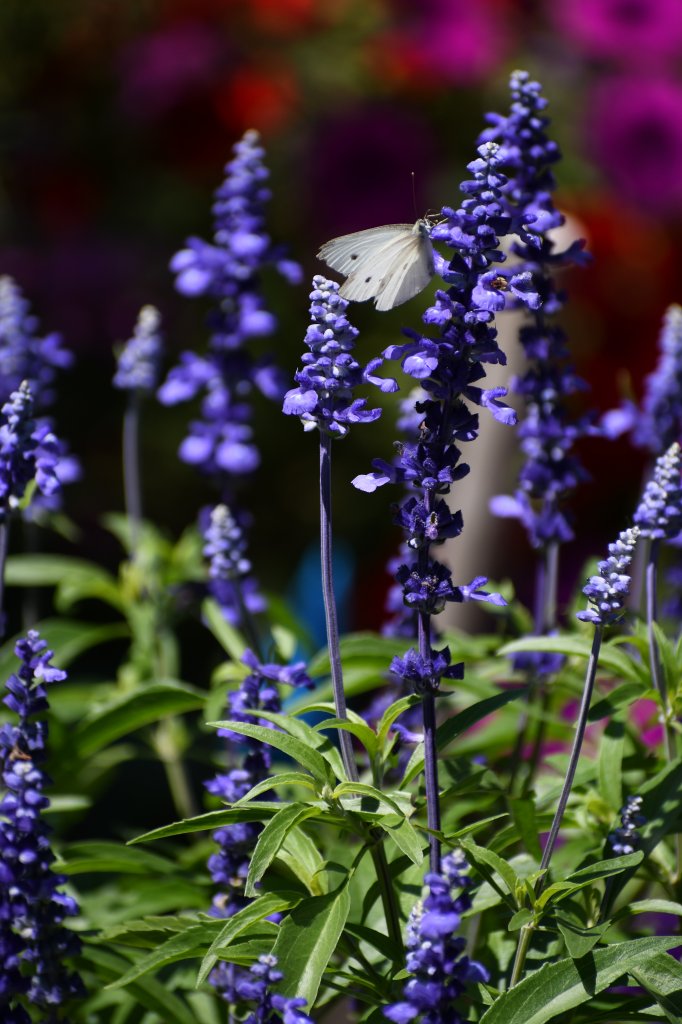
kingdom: Animalia
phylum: Arthropoda
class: Insecta
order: Lepidoptera
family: Pieridae
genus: Pieris
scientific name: Pieris rapae
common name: Cabbage White
